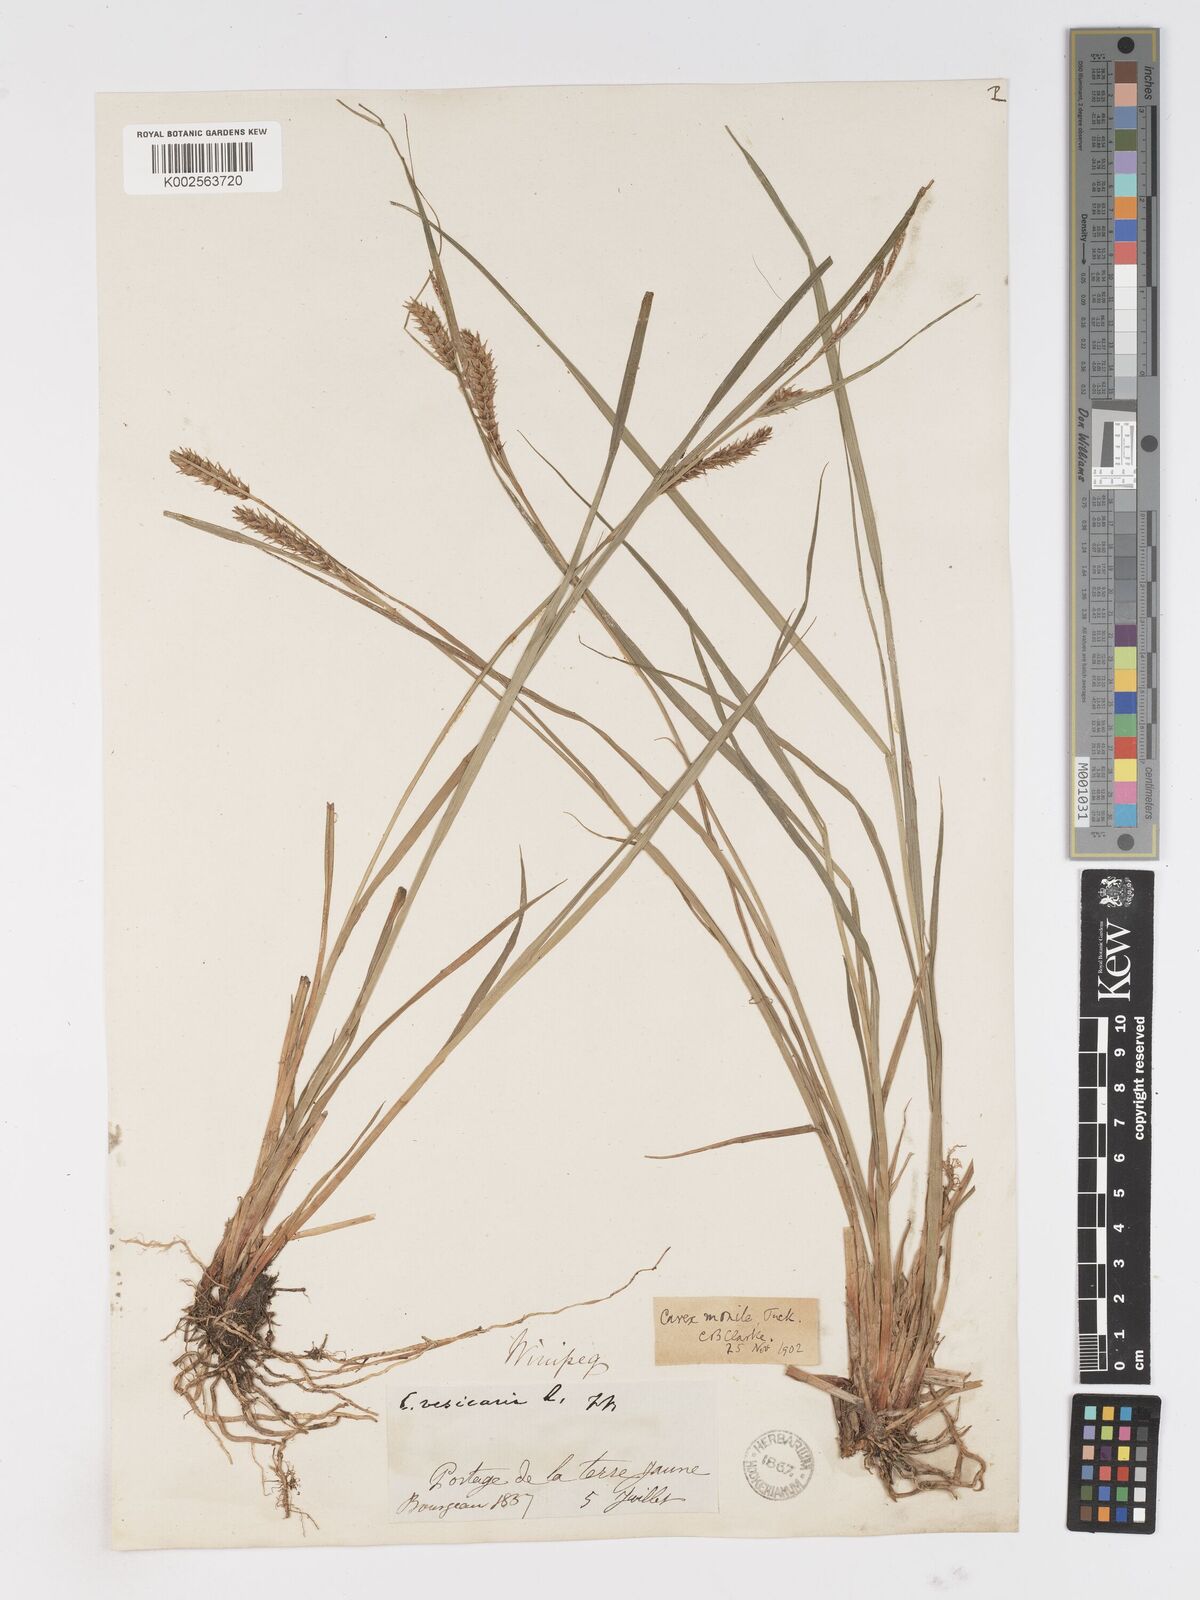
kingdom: Plantae
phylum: Tracheophyta
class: Liliopsida
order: Poales
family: Cyperaceae
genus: Carex
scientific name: Carex vesicaria
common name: Bladder-sedge
